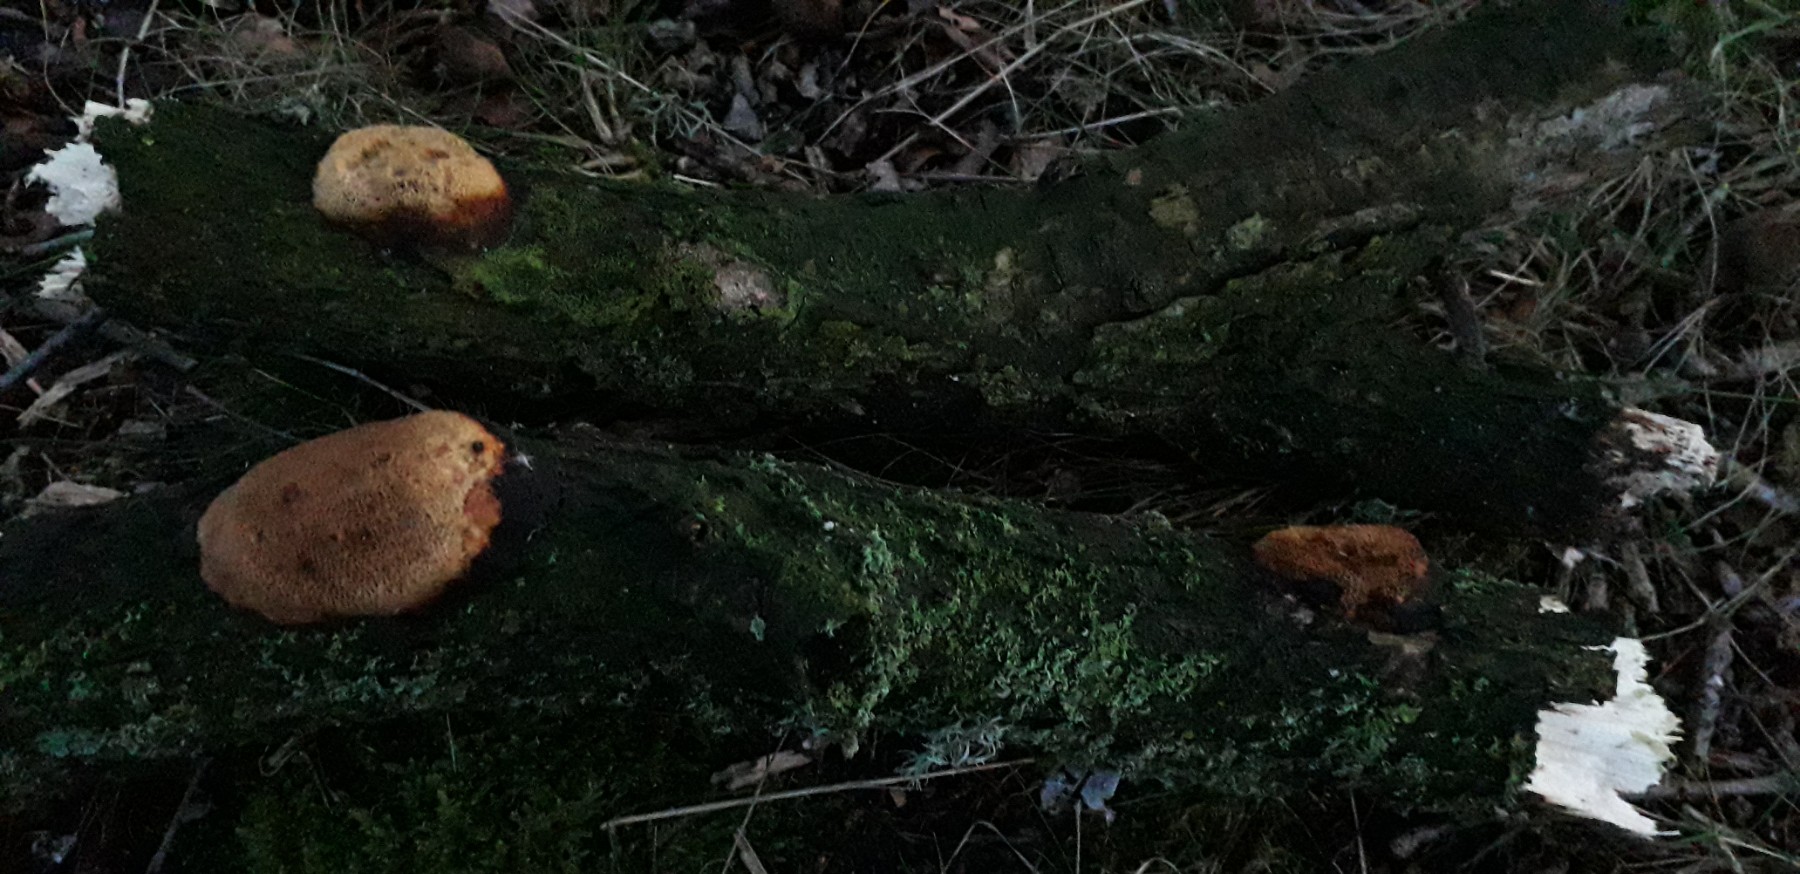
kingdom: Fungi
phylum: Basidiomycota
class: Agaricomycetes
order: Polyporales
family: Polyporaceae
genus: Szczepkamyces
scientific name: Szczepkamyces campestris
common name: hasselporesvamp
